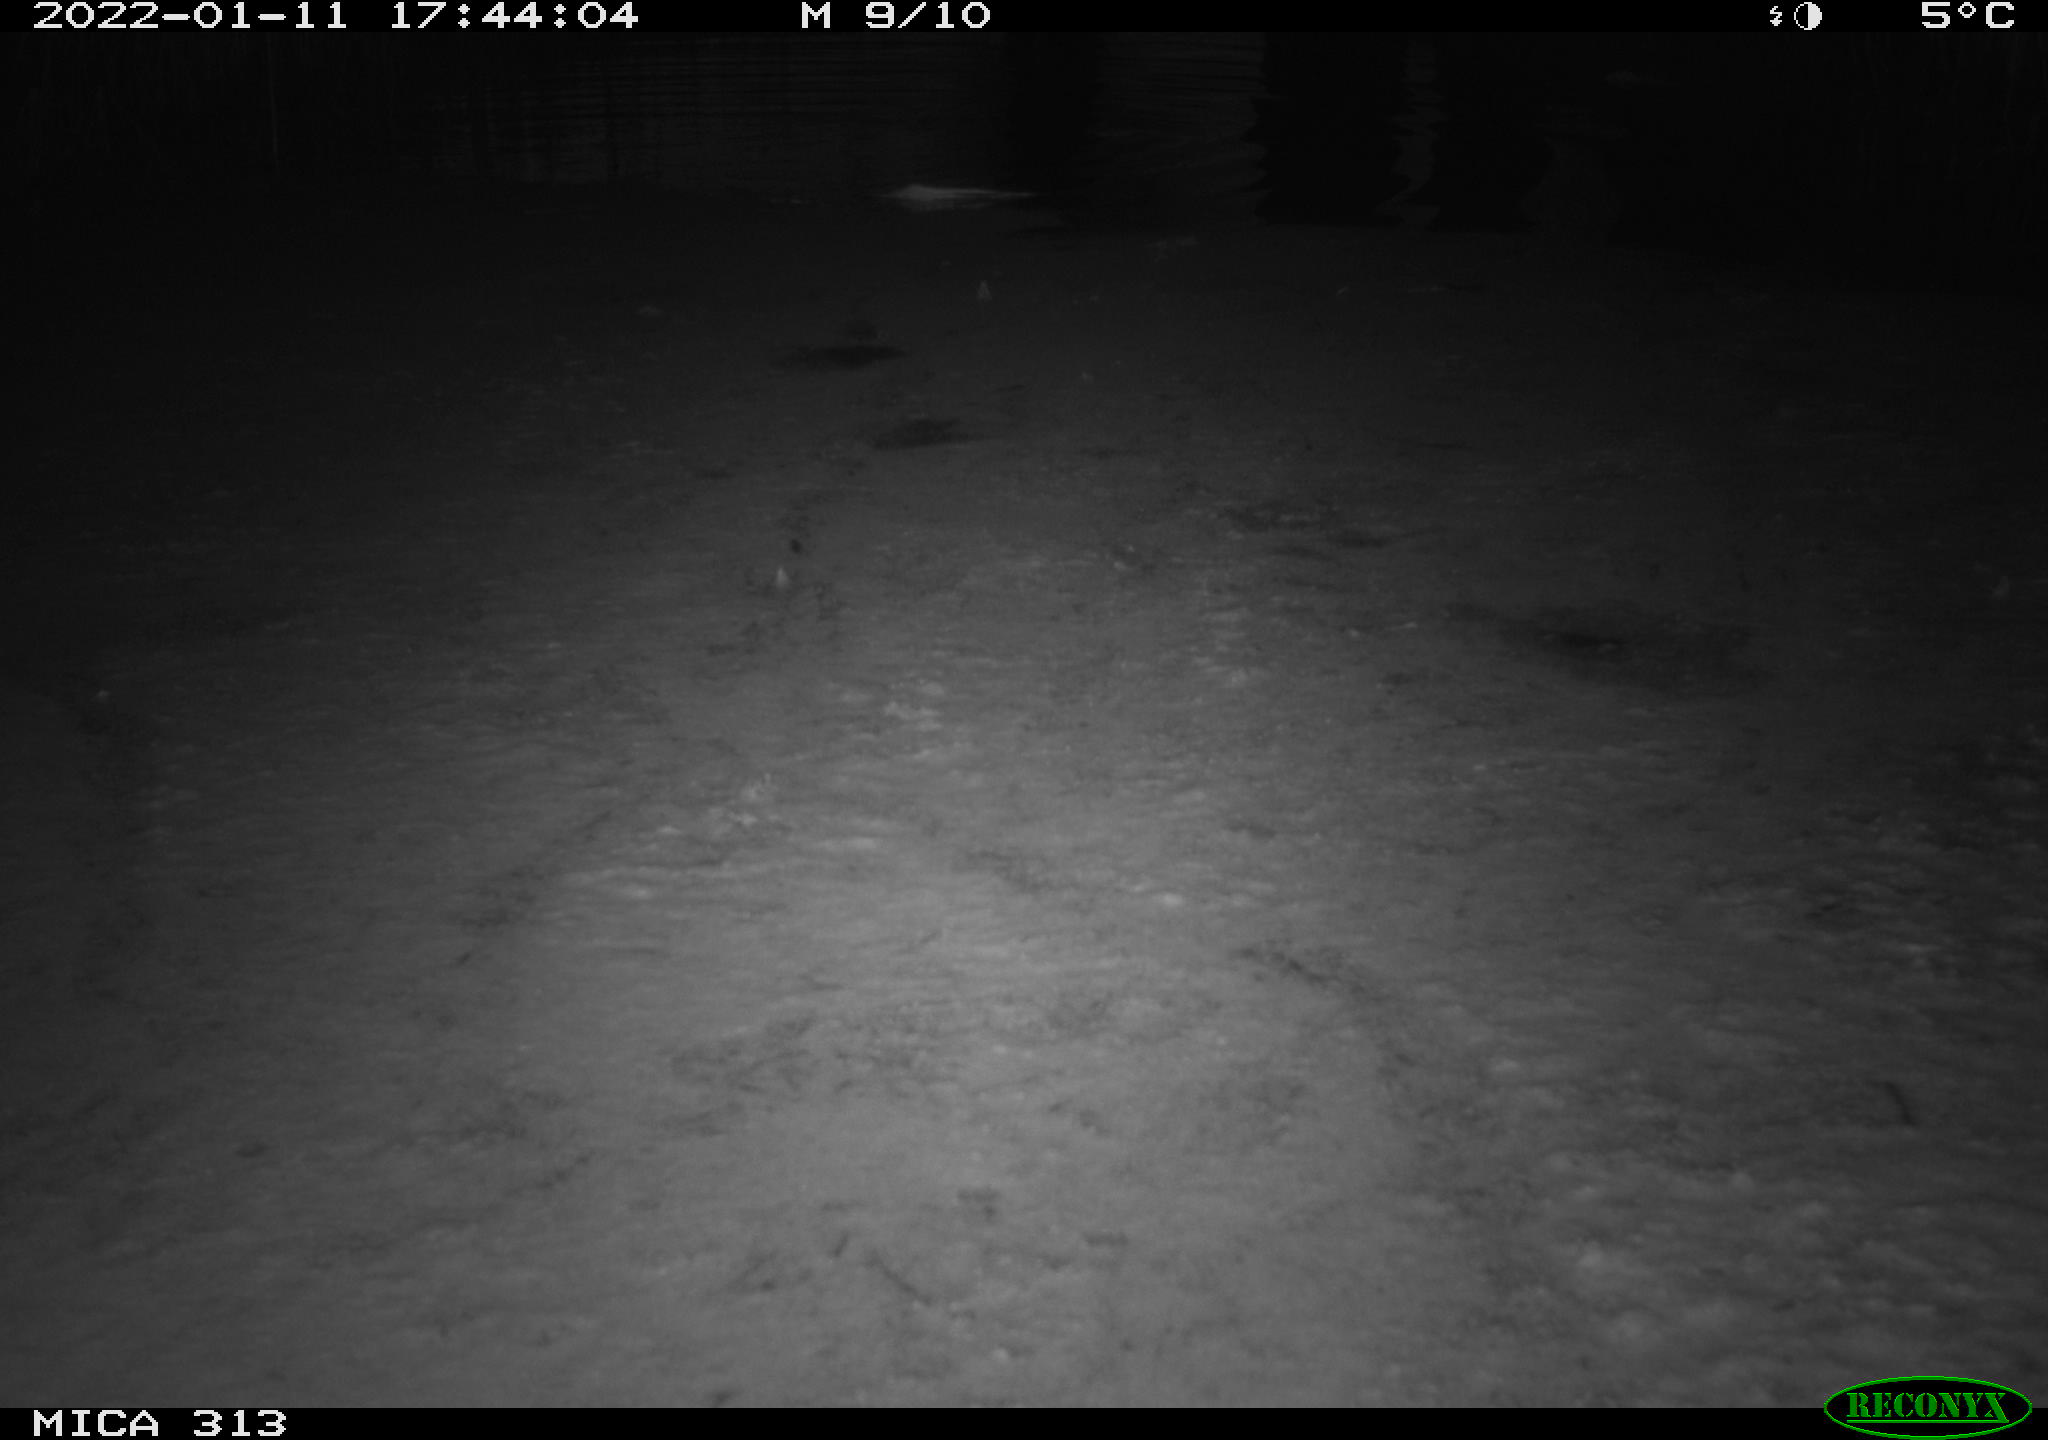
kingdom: Animalia
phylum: Chordata
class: Aves
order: Gruiformes
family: Rallidae
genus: Gallinula
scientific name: Gallinula chloropus
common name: Common moorhen
